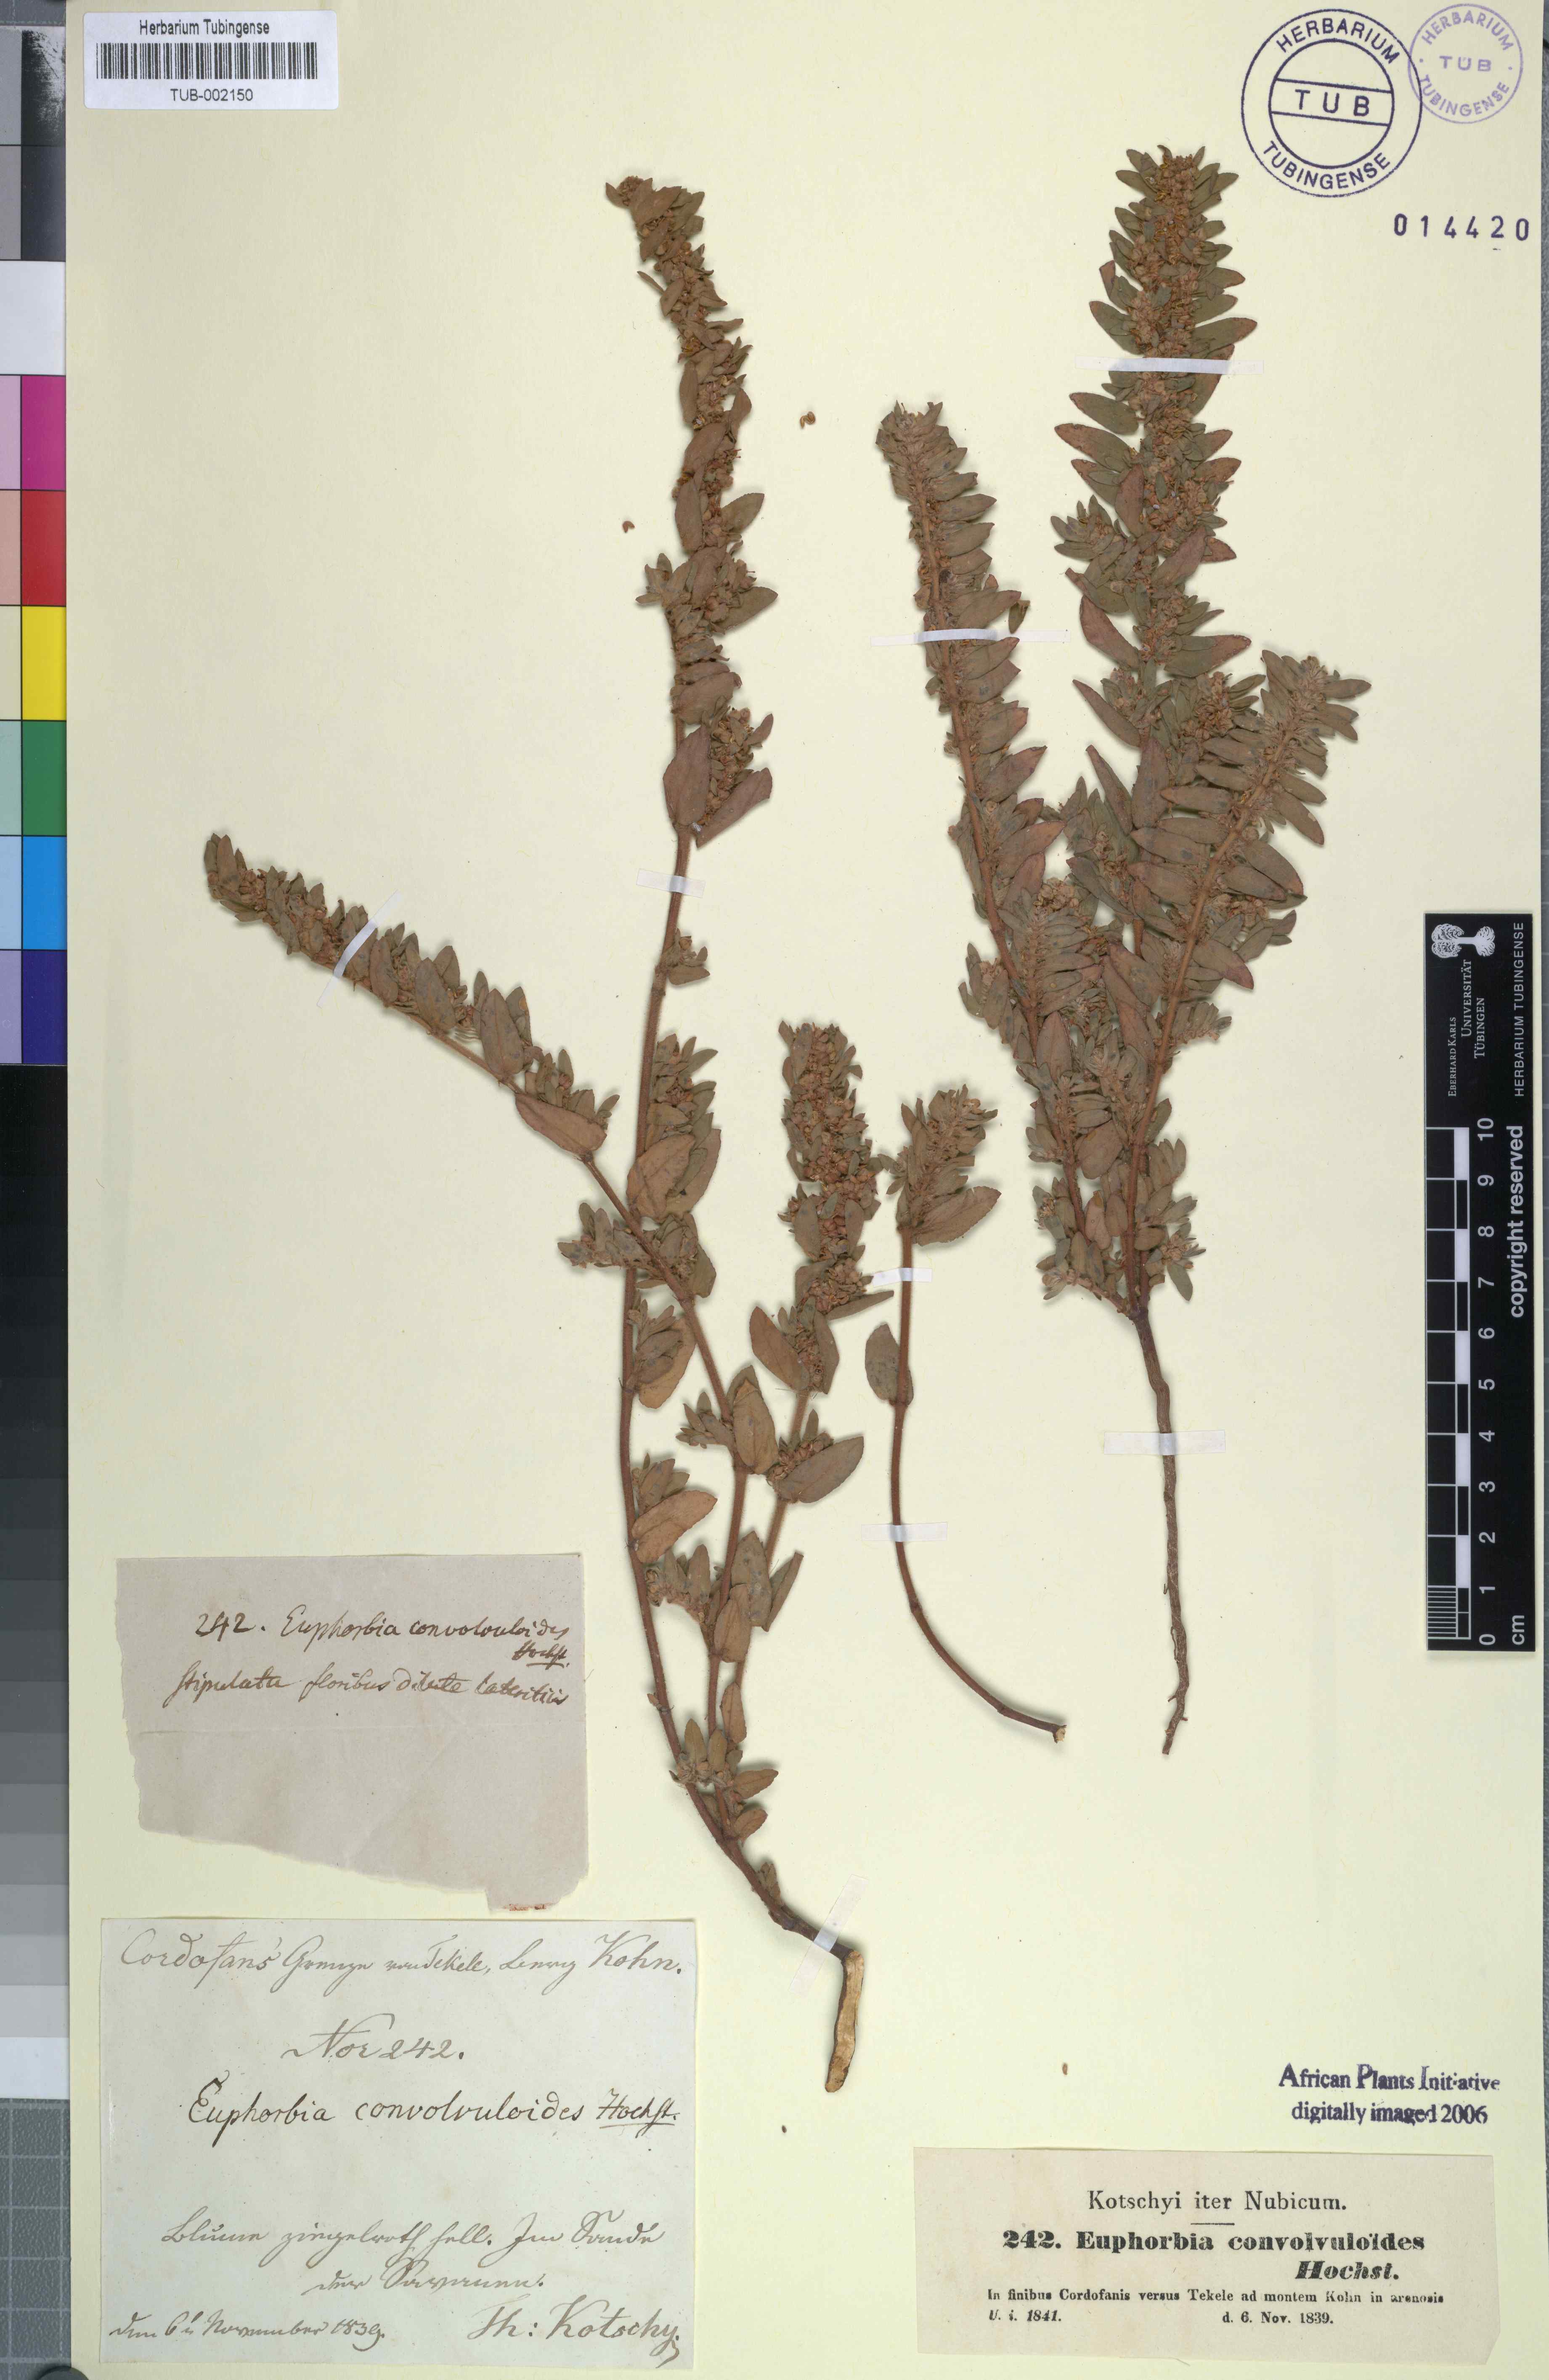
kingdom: Plantae
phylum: Tracheophyta
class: Magnoliopsida
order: Malpighiales
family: Euphorbiaceae
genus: Euphorbia
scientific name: Euphorbia convolvuloides
